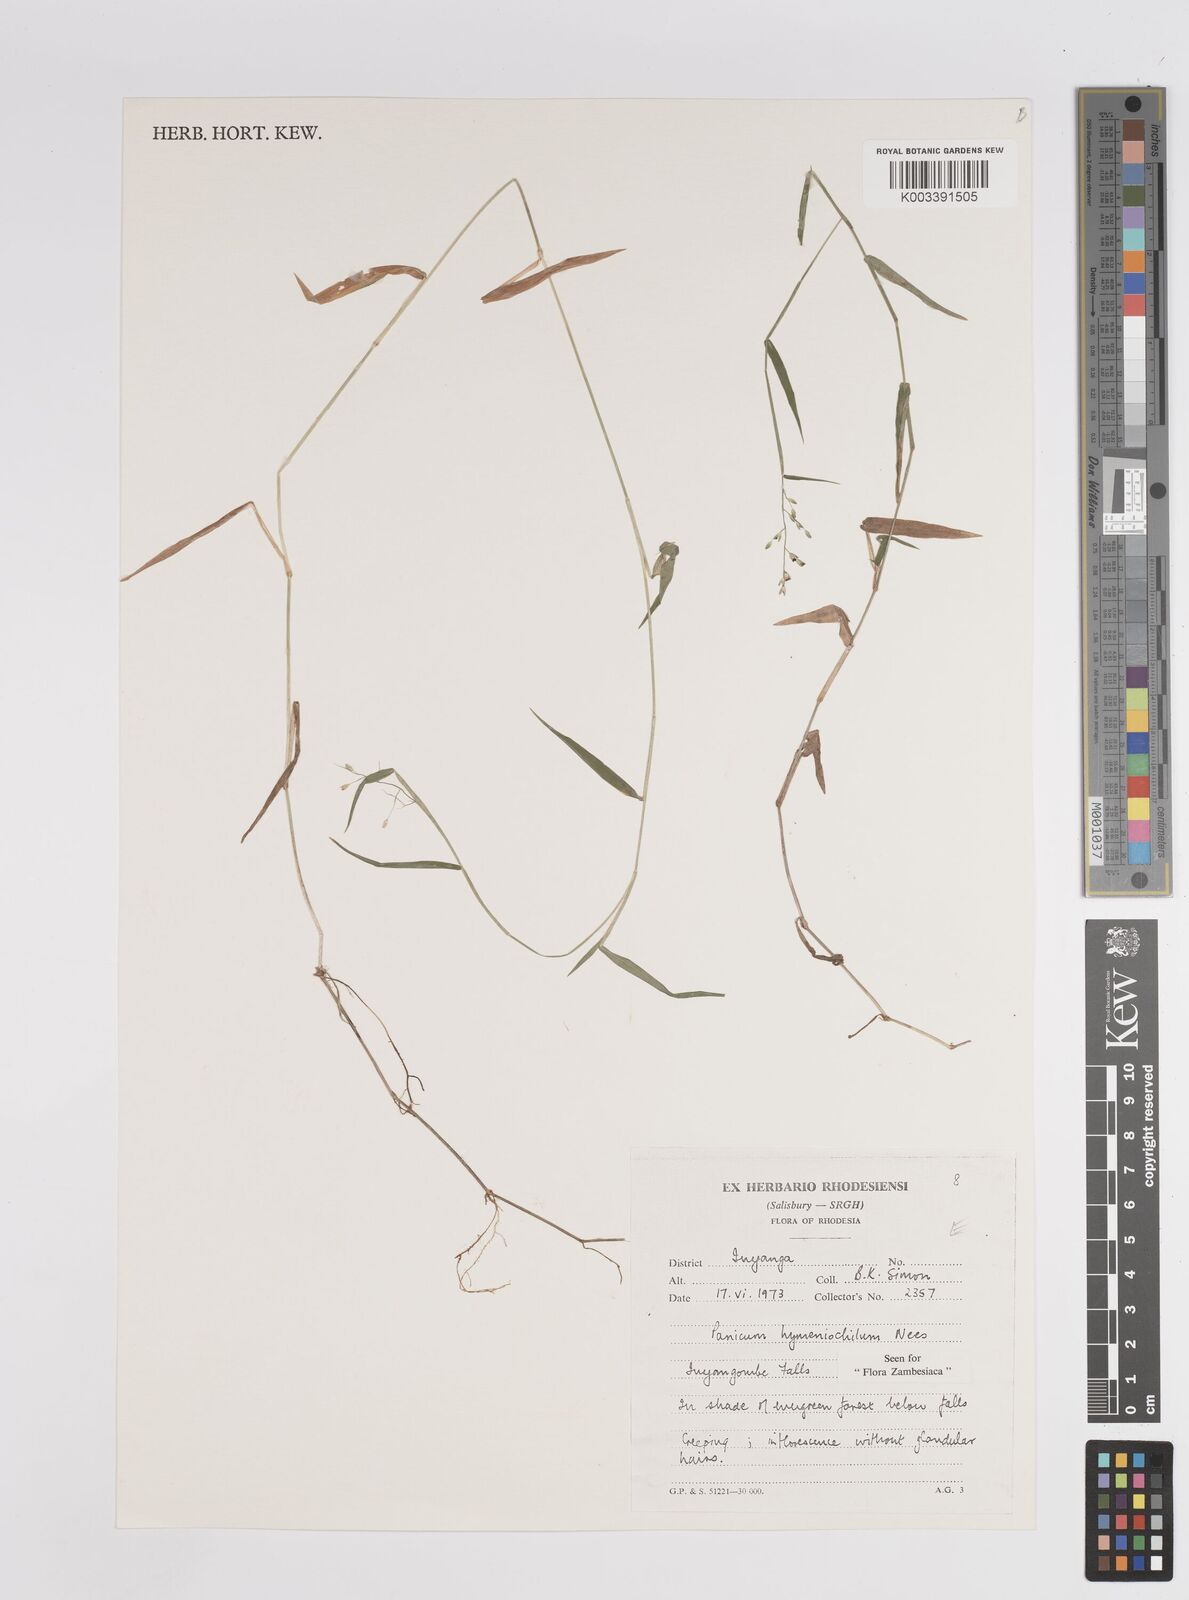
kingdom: Plantae
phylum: Tracheophyta
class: Liliopsida
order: Poales
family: Poaceae
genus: Adenochloa
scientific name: Adenochloa hymeniochila
